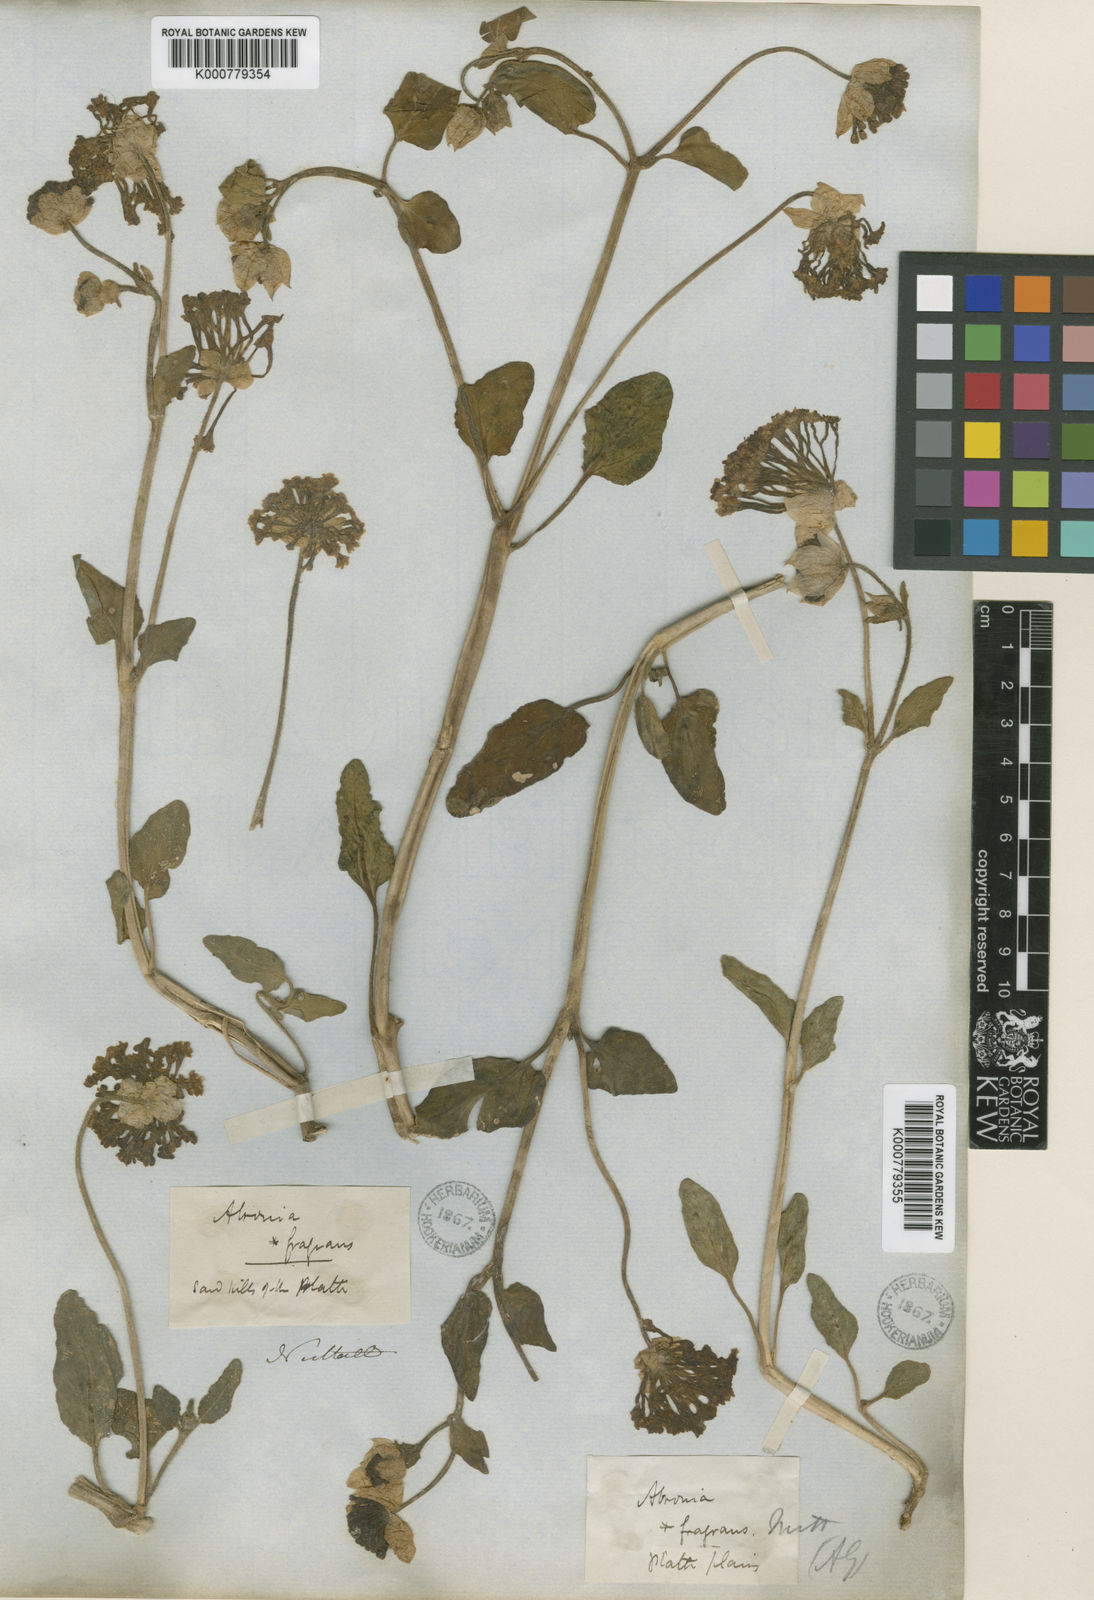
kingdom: Plantae
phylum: Tracheophyta
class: Magnoliopsida
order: Caryophyllales
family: Nyctaginaceae
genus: Abronia
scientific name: Abronia fragrans
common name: Fragrant sand-verbena
